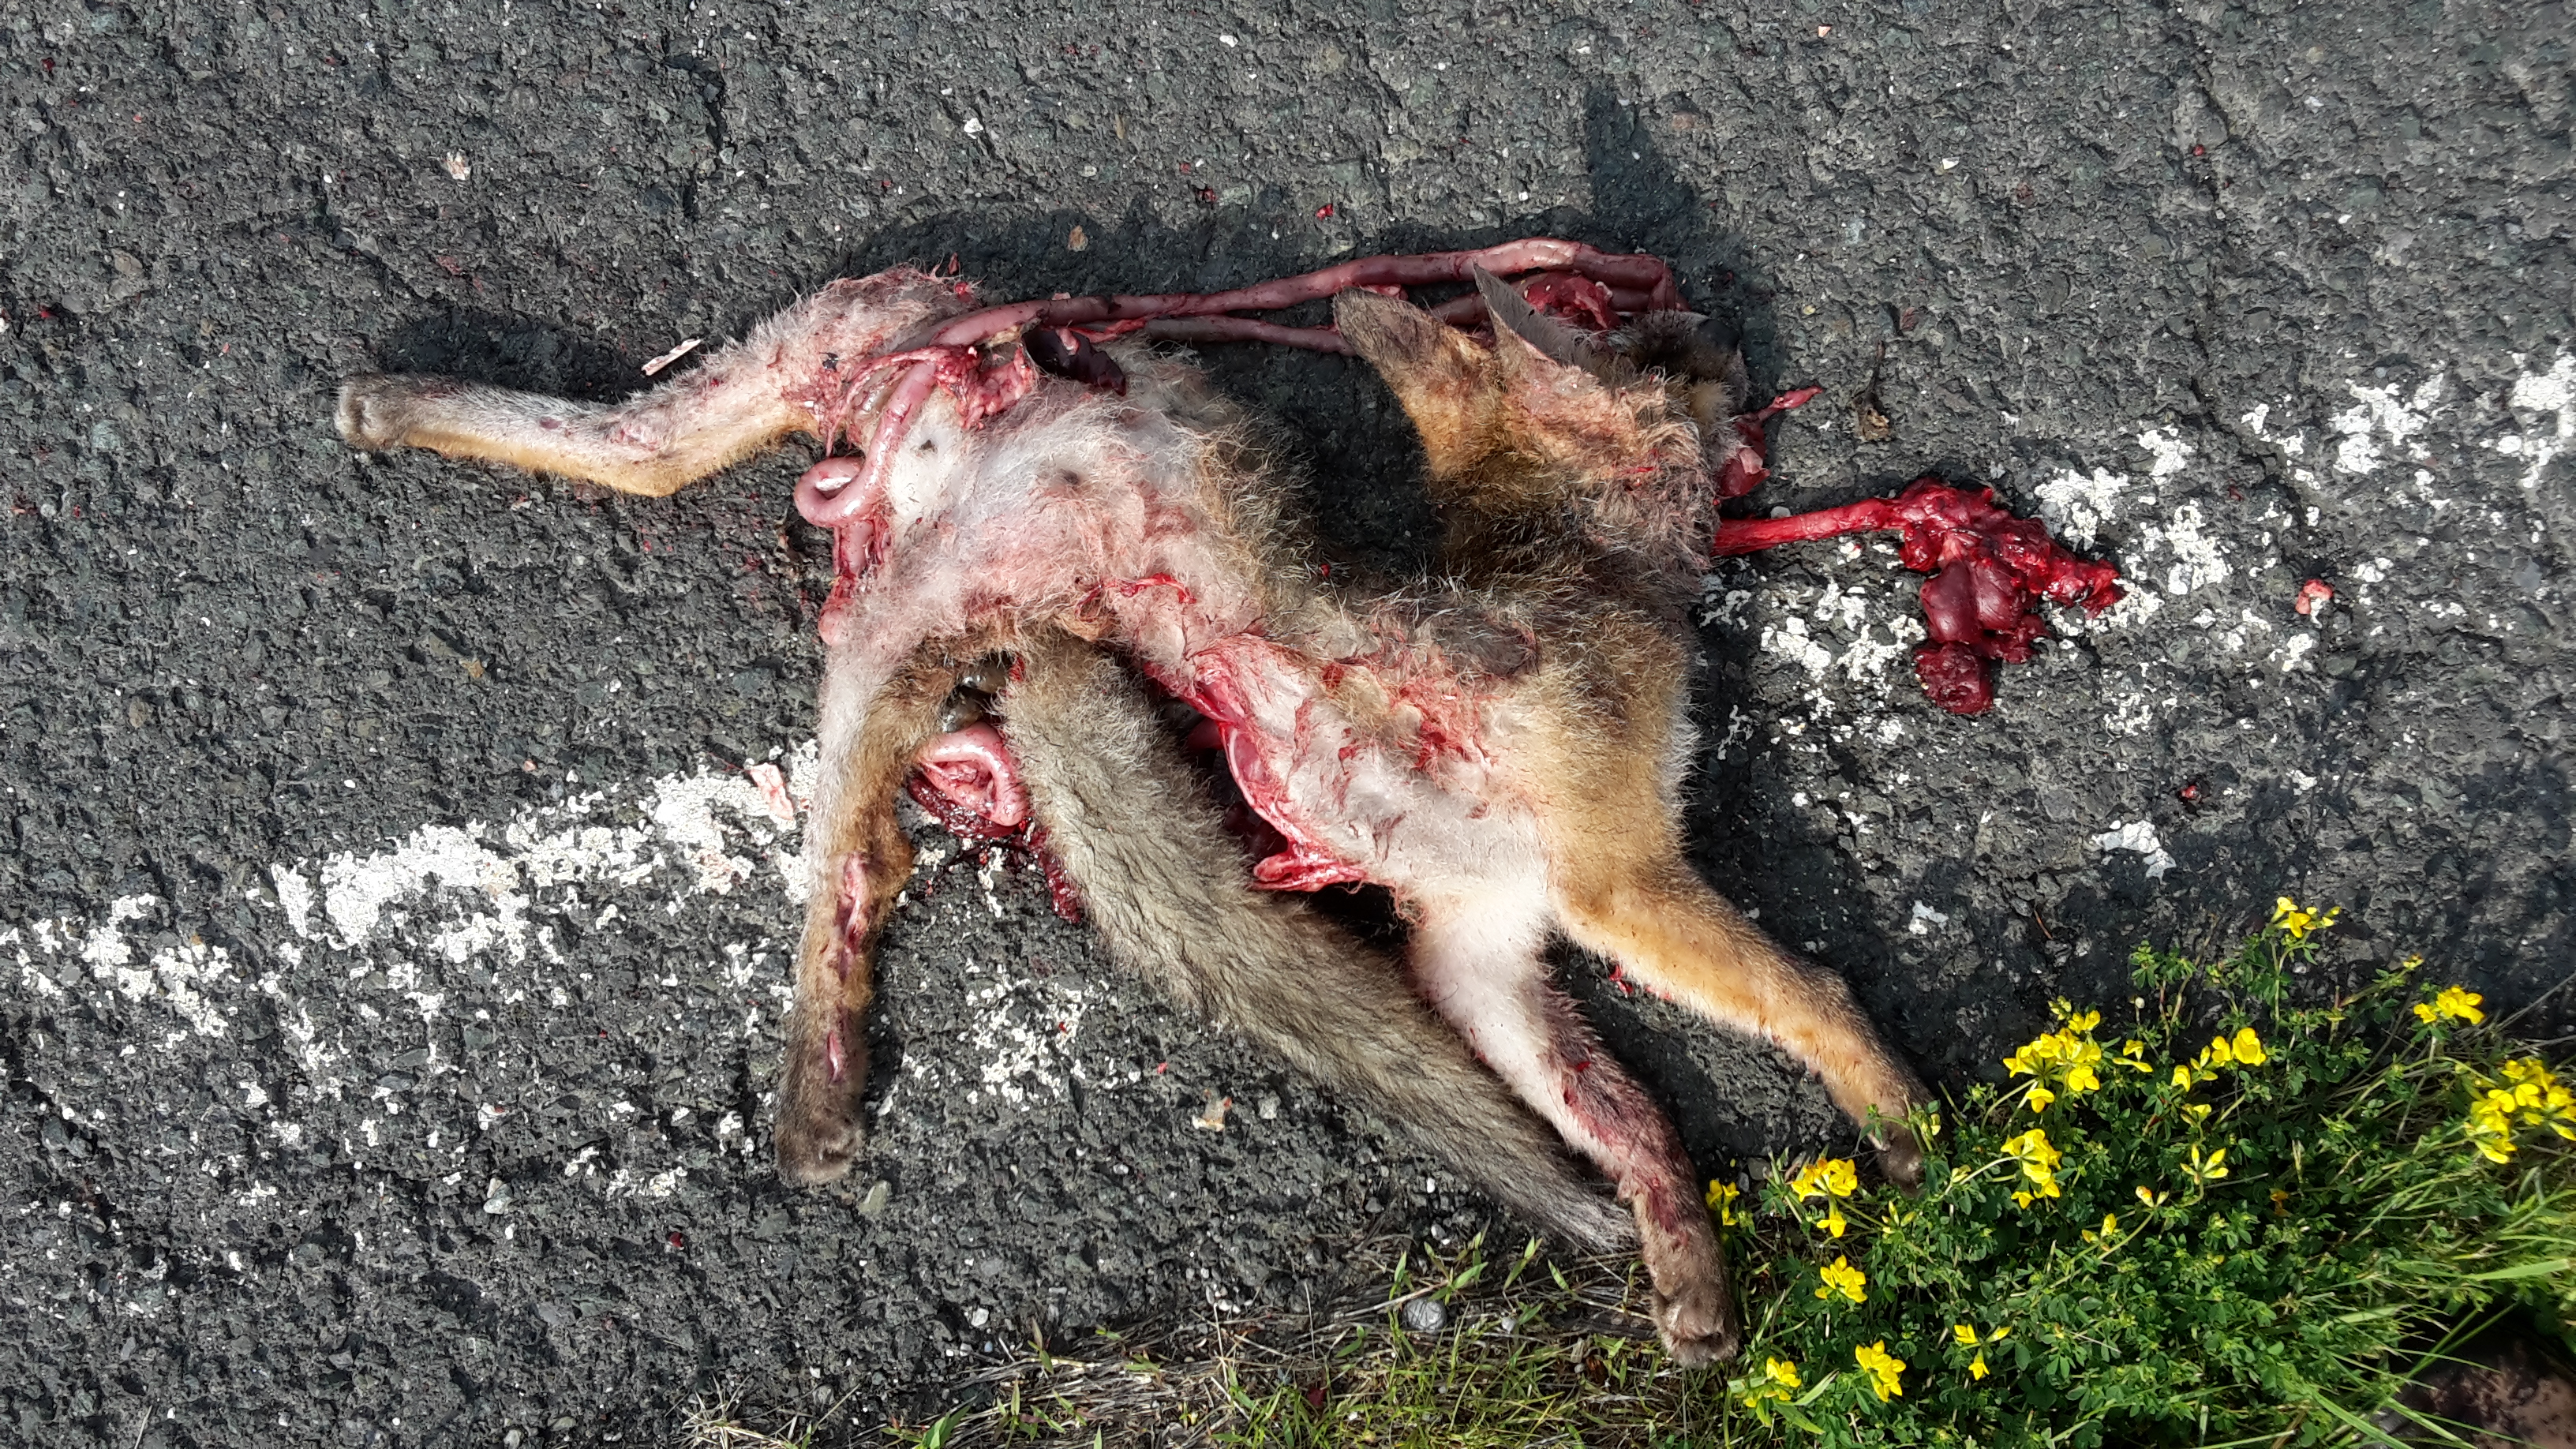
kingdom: Animalia
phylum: Chordata
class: Mammalia
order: Carnivora
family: Canidae
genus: Vulpes
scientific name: Vulpes vulpes
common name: Red fox
